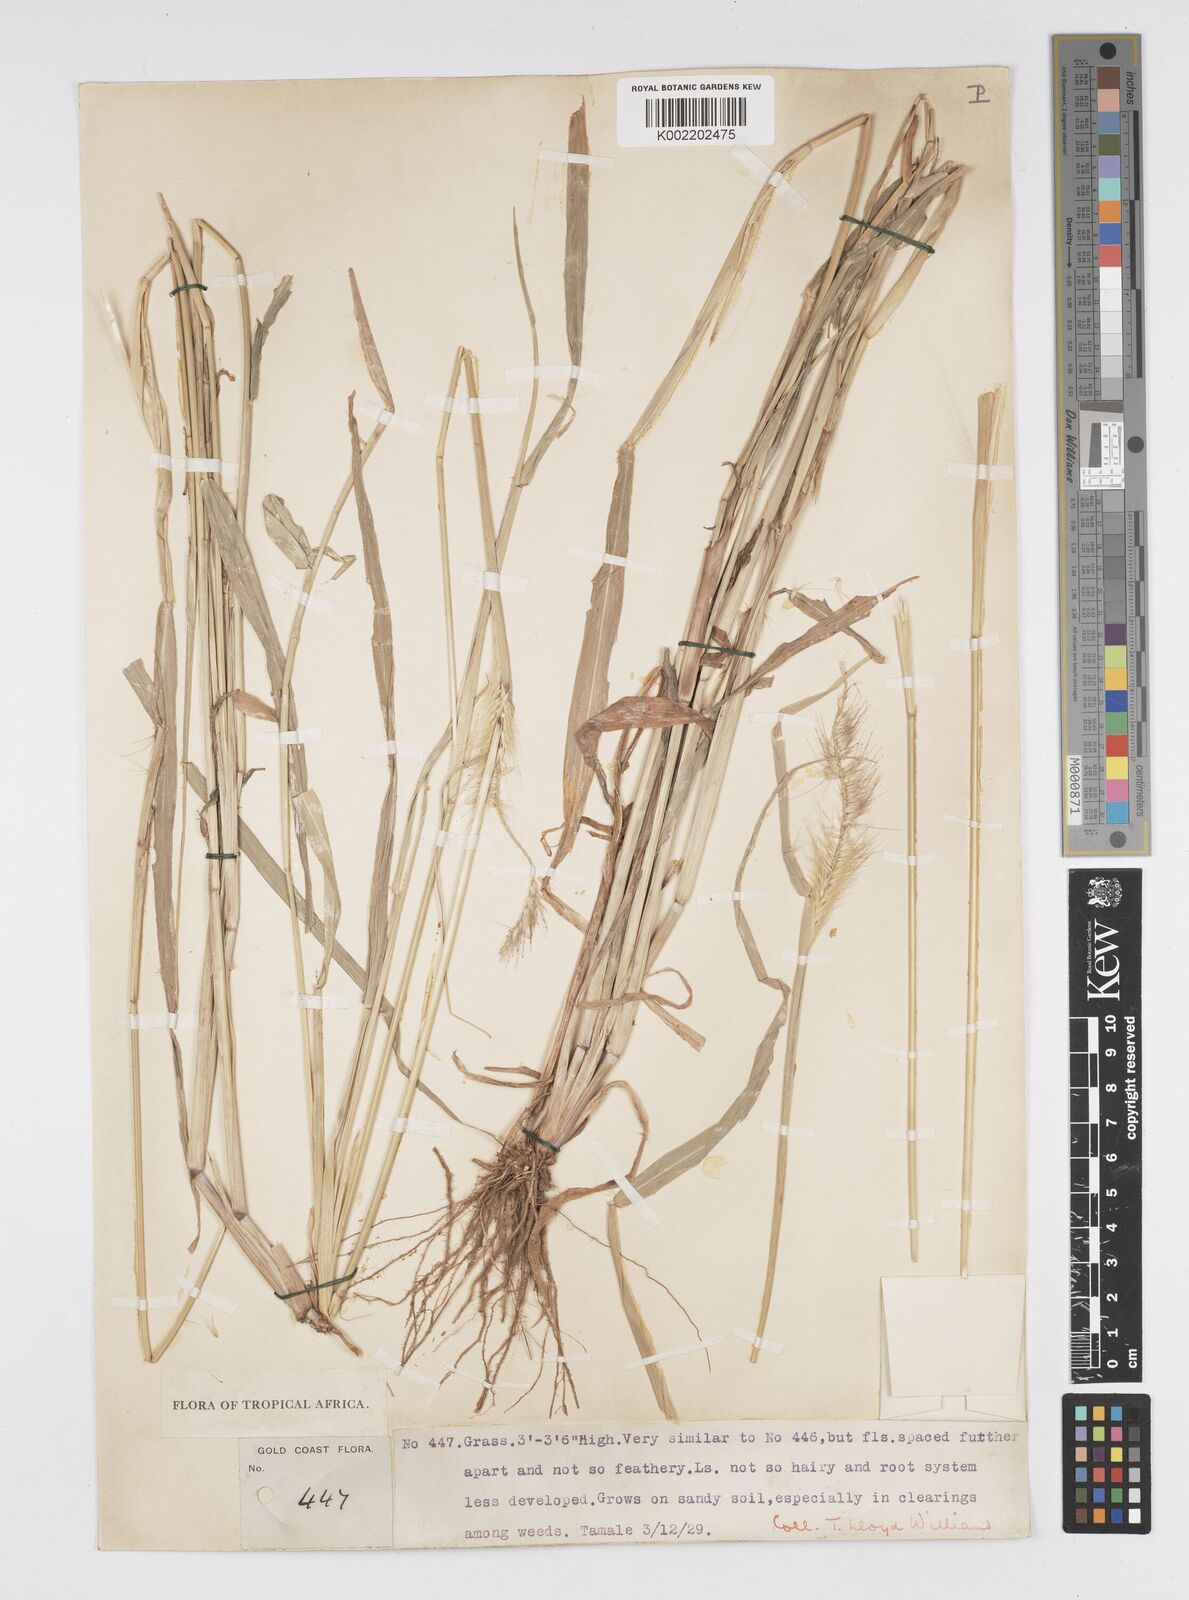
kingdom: Plantae
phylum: Tracheophyta
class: Liliopsida
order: Poales
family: Poaceae
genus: Setaria
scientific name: Setaria parviflora
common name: Knotroot bristle-grass
